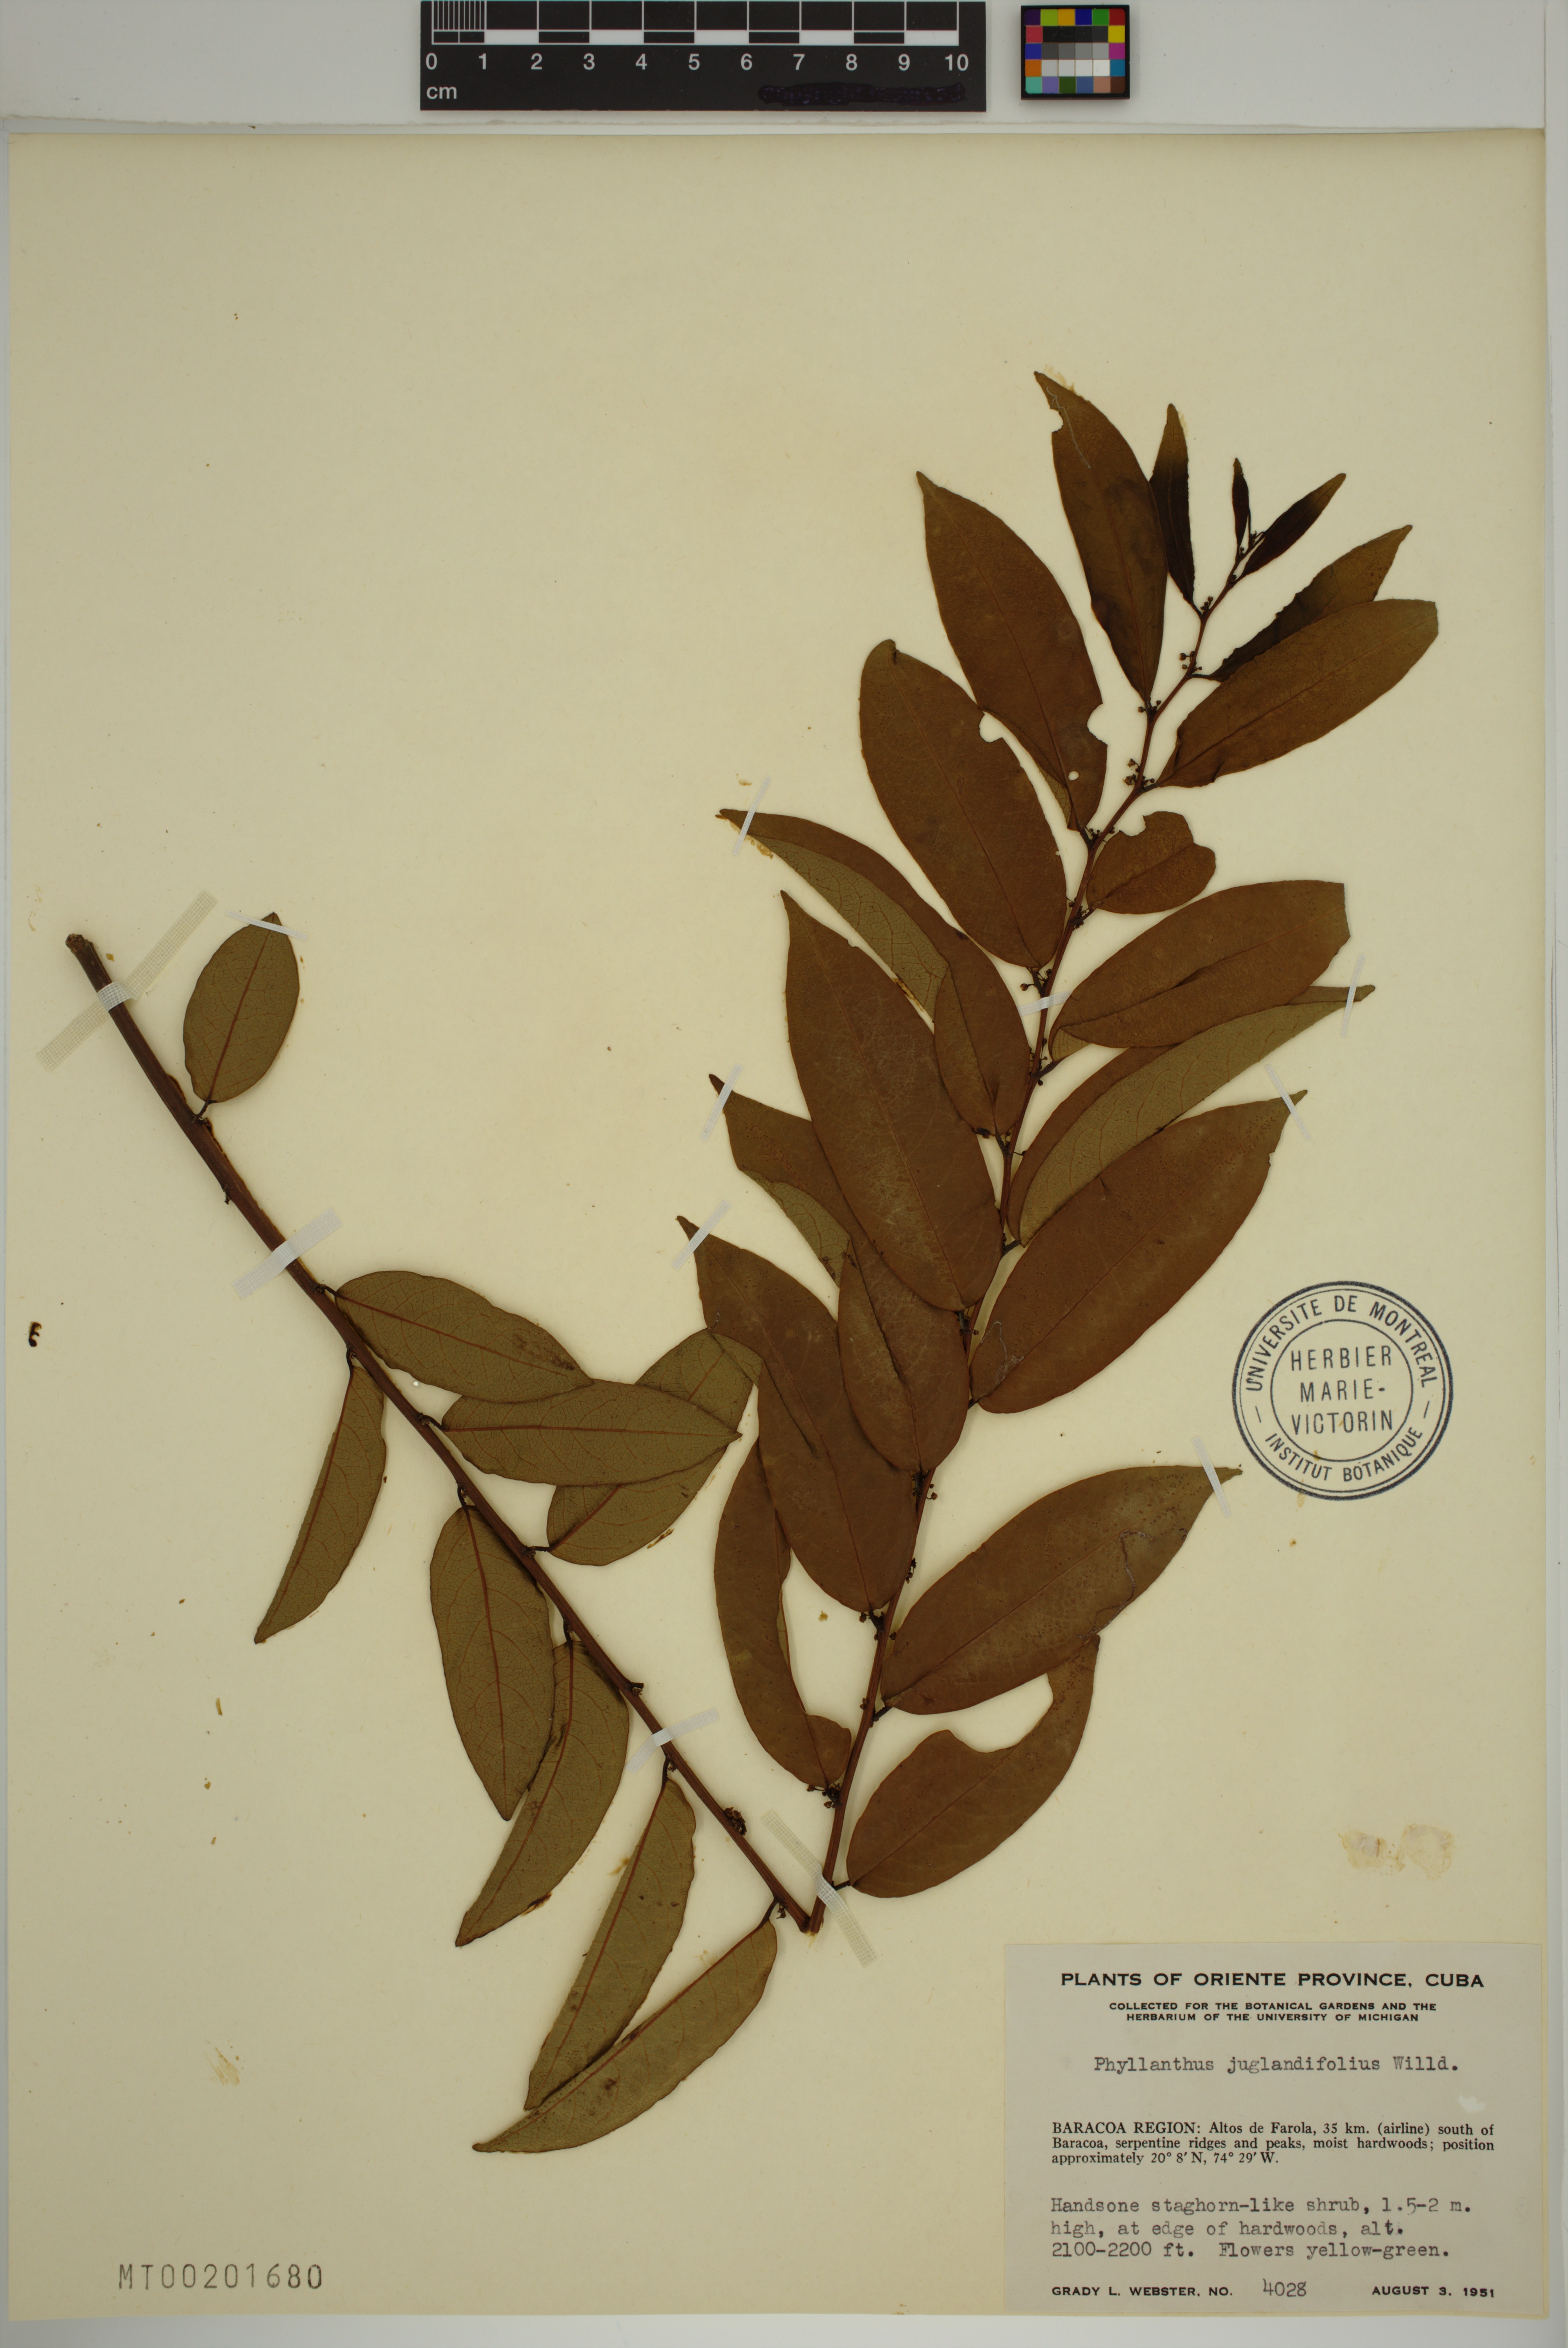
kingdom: Plantae
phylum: Tracheophyta
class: Magnoliopsida
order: Malpighiales
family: Phyllanthaceae
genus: Phyllanthus
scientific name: Phyllanthus juglandifolius
